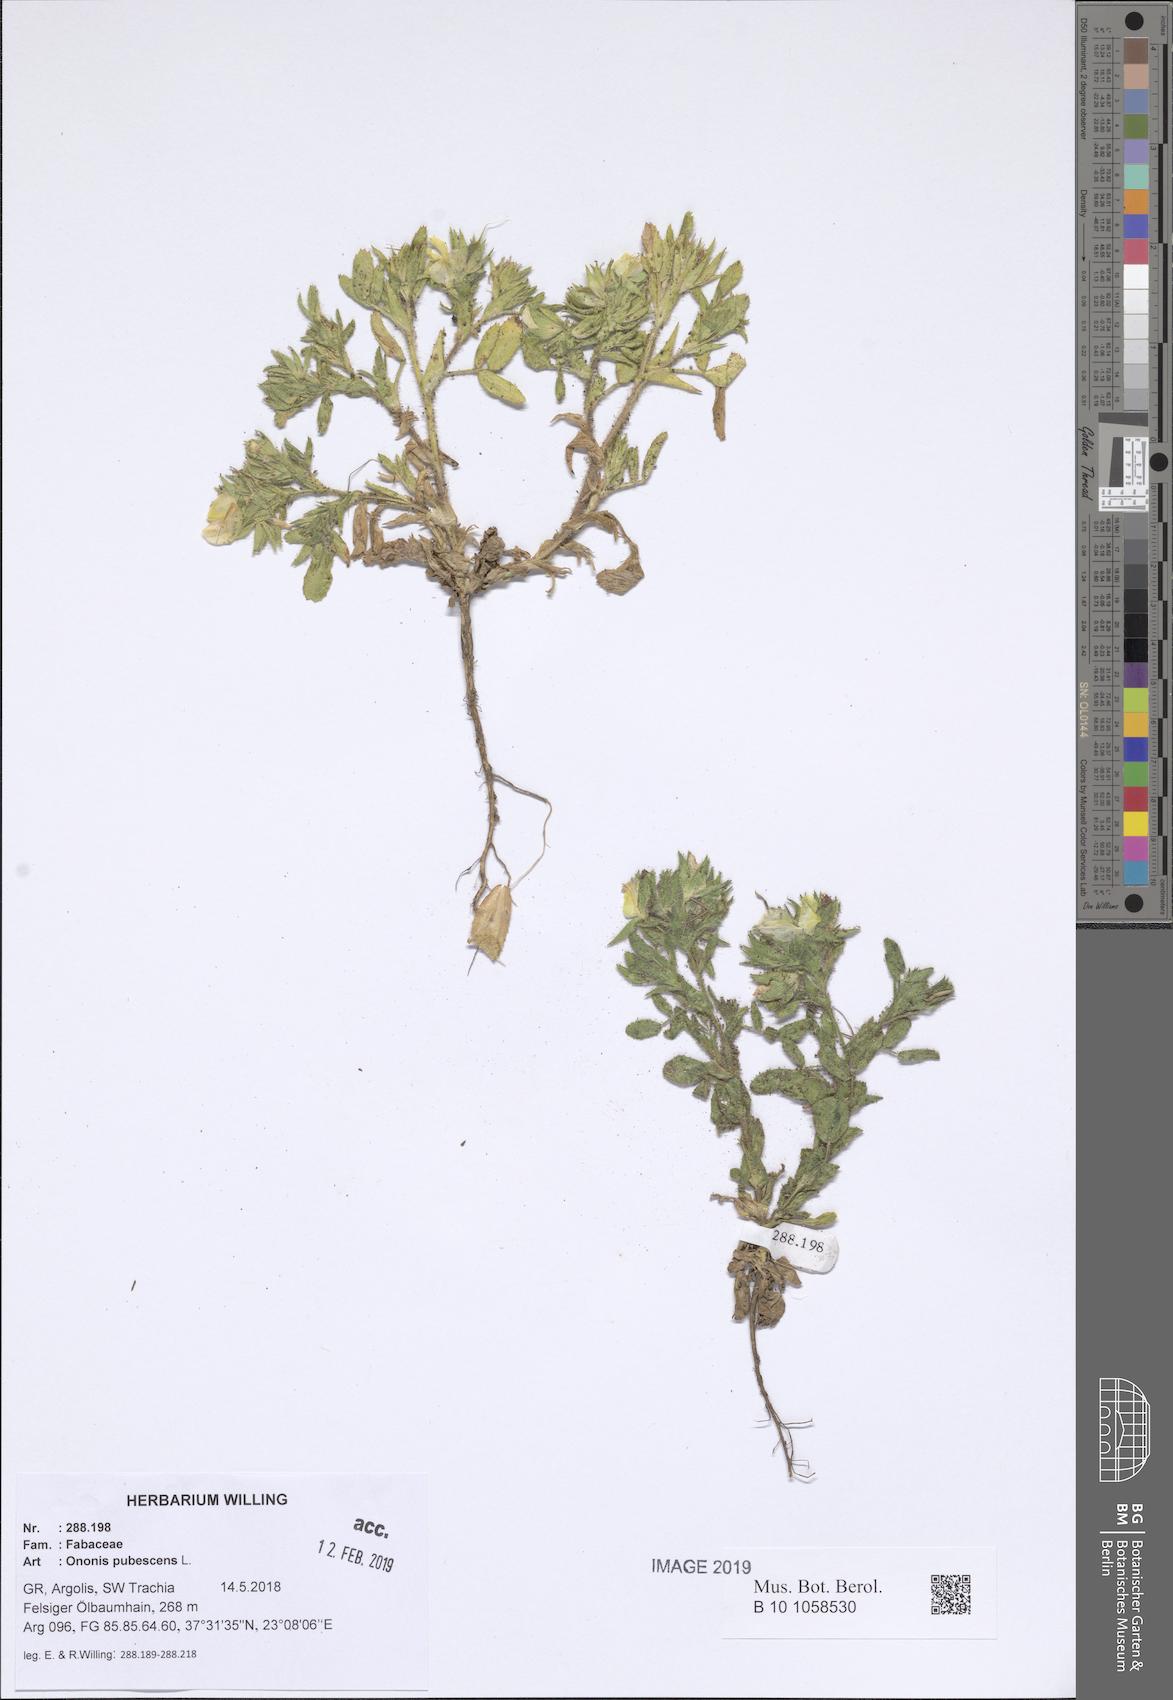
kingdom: Plantae
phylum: Tracheophyta
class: Magnoliopsida
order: Fabales
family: Fabaceae
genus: Ononis
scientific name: Ononis pubescens
